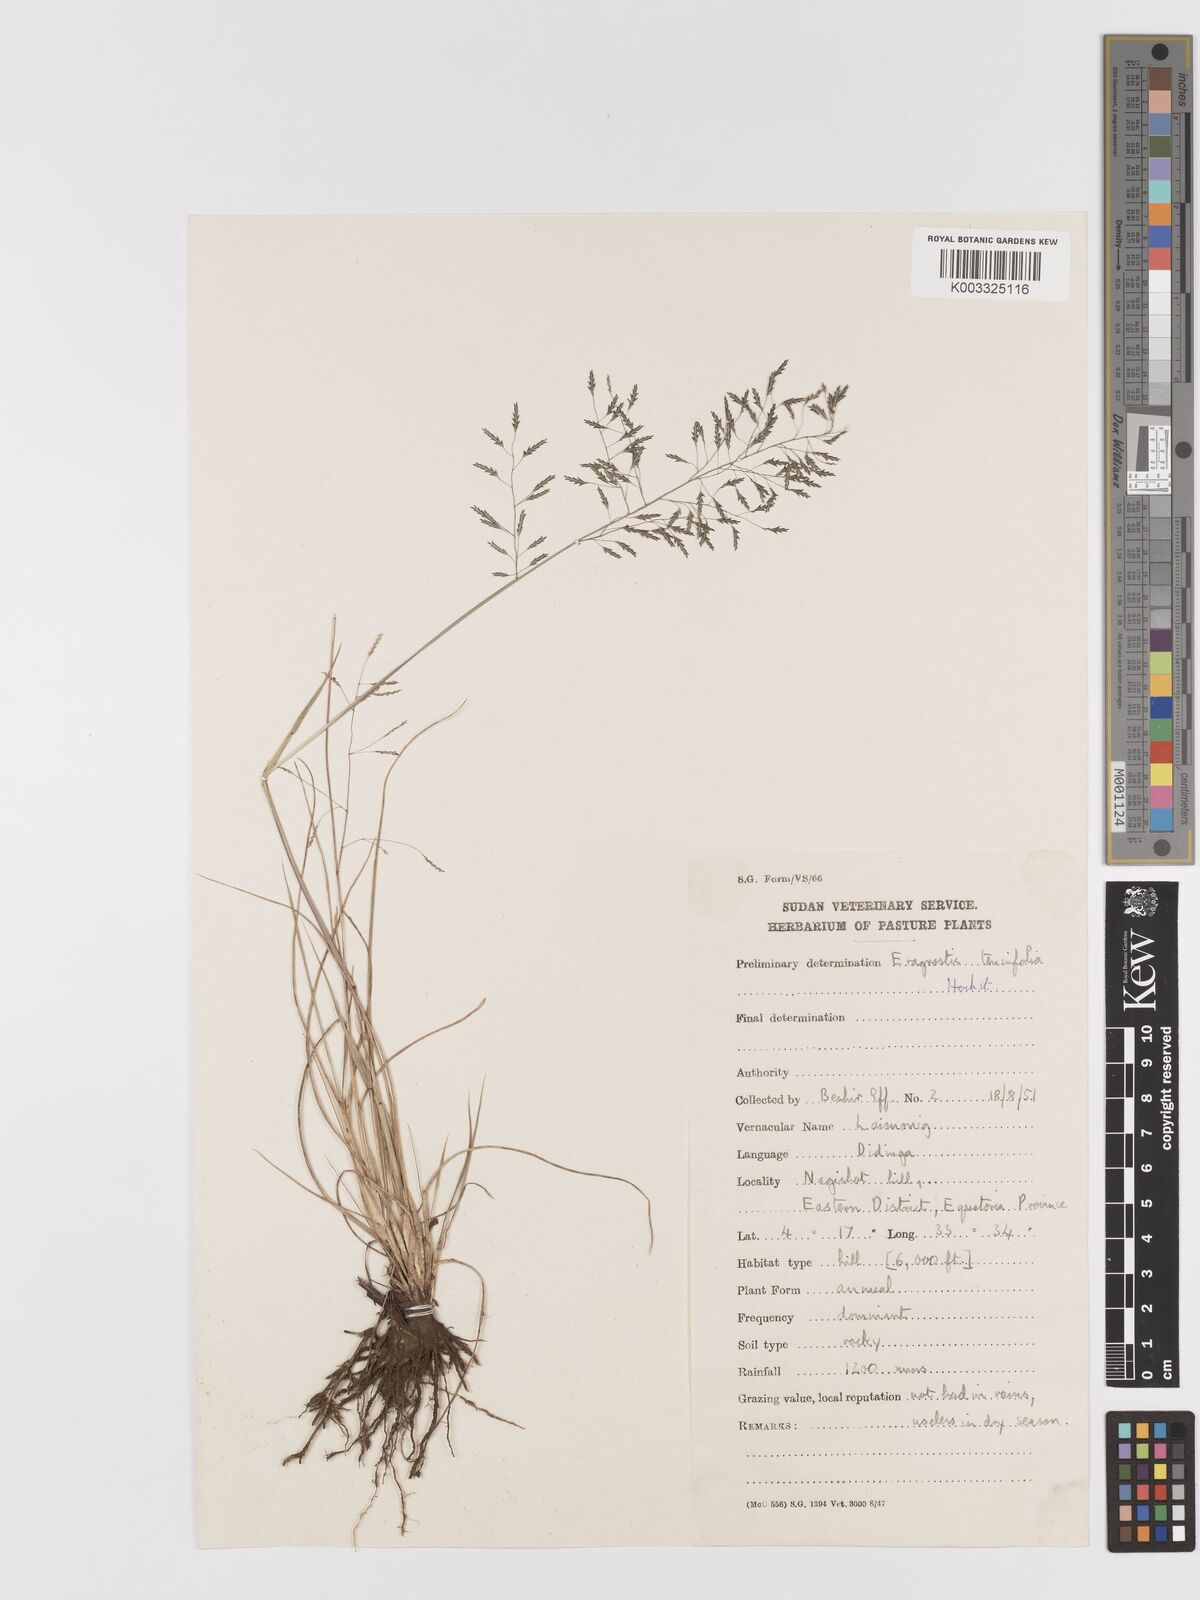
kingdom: Plantae
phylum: Tracheophyta
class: Liliopsida
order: Poales
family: Poaceae
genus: Eragrostis
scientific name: Eragrostis tenuifolia
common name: Elastic grass
